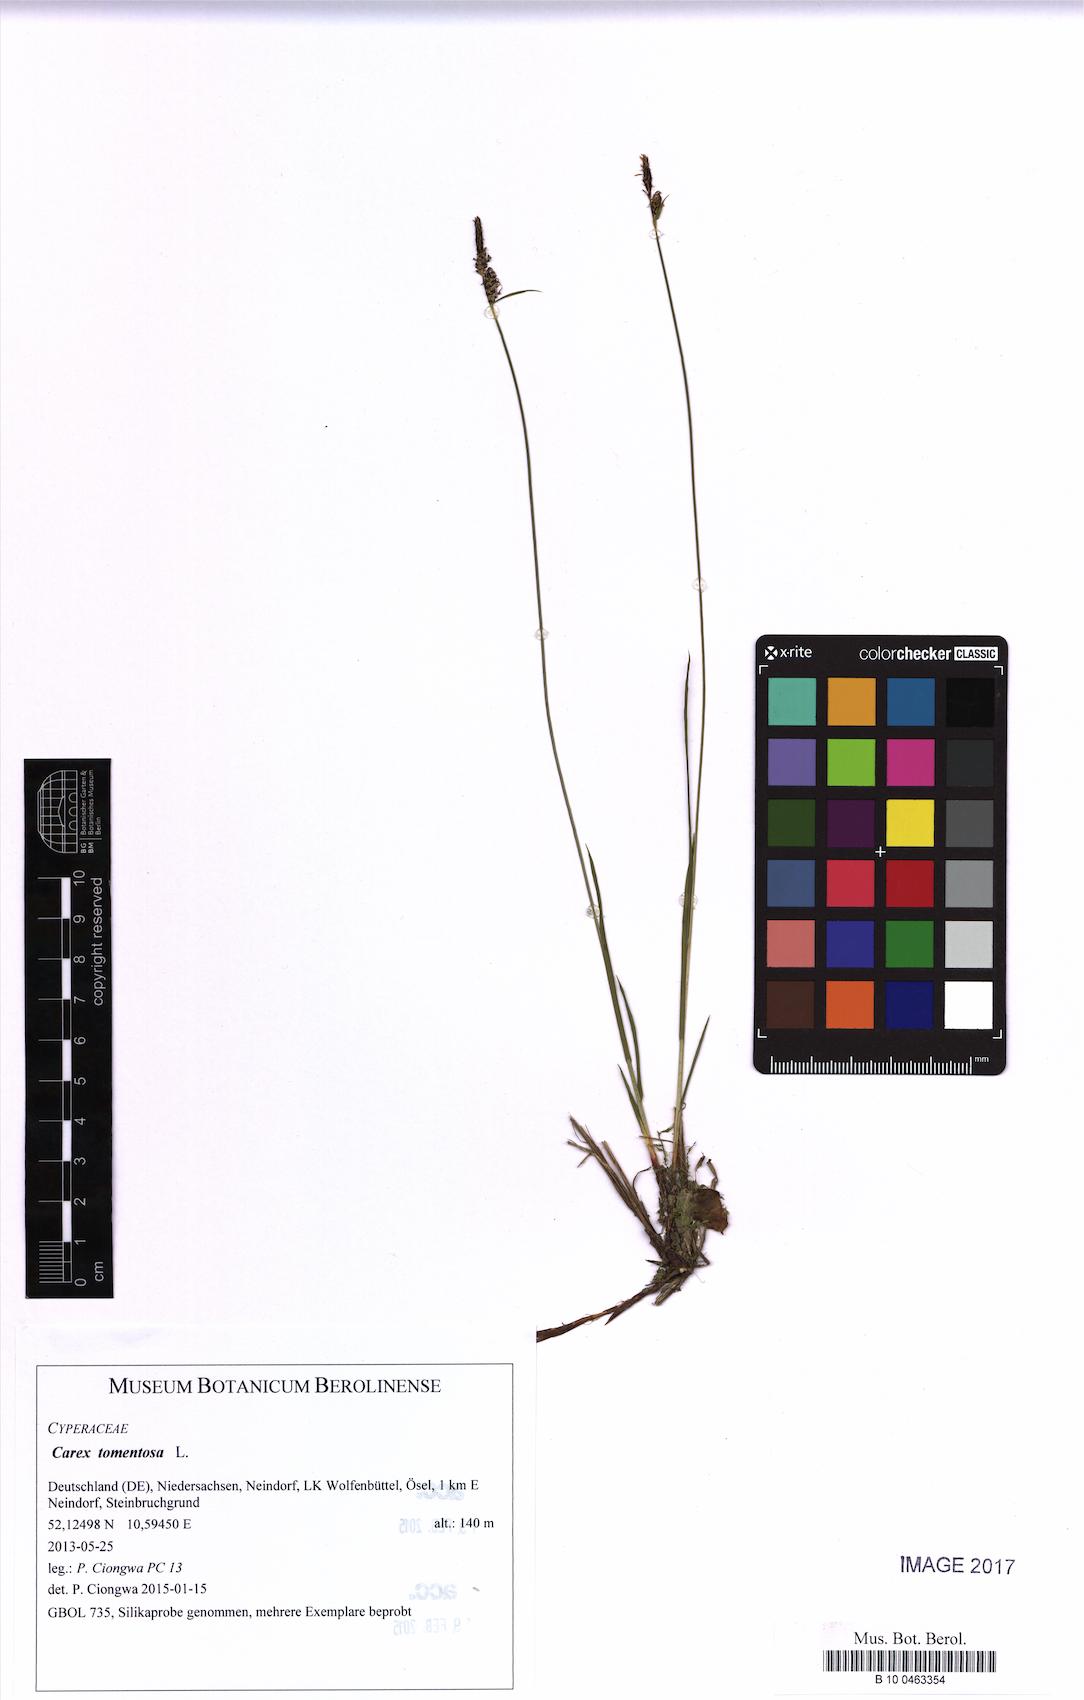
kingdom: Plantae
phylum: Tracheophyta
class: Liliopsida
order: Poales
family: Cyperaceae
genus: Carex
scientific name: Carex tomentosa
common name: Downy-fruited sedge
